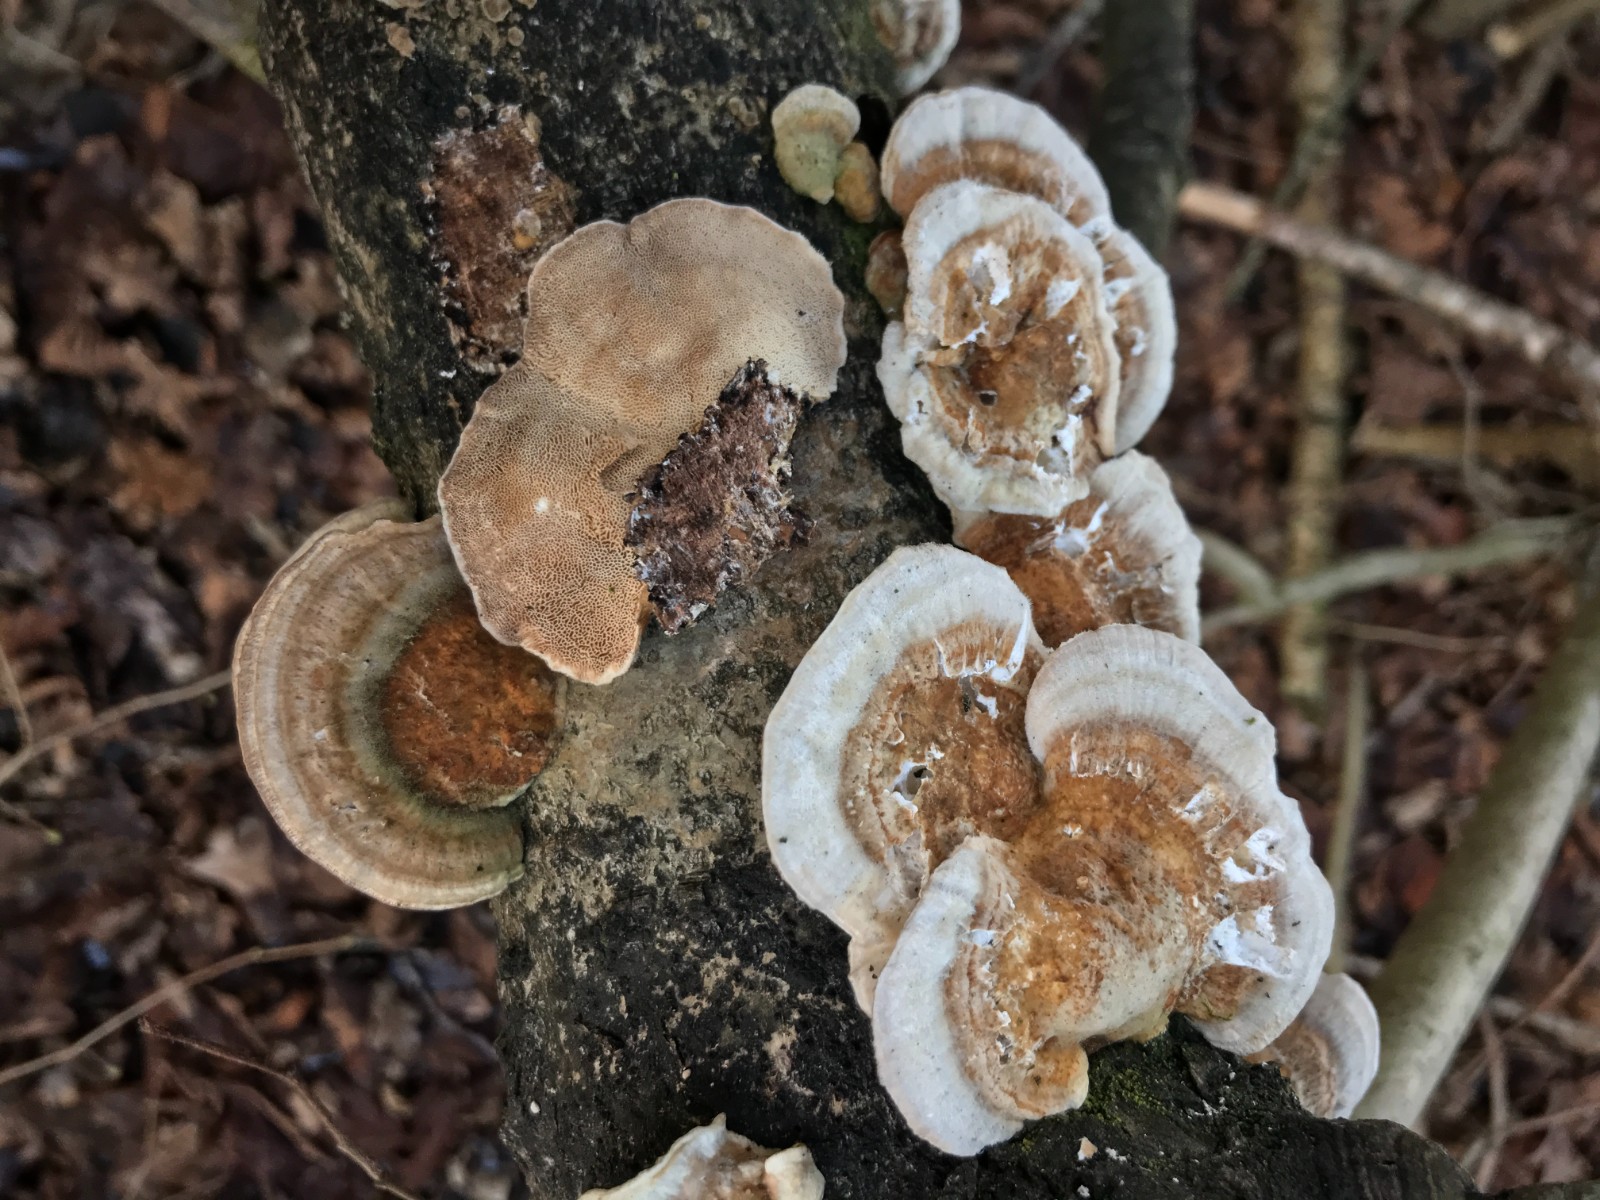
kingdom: Fungi
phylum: Basidiomycota
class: Agaricomycetes
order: Polyporales
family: Polyporaceae
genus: Trametes
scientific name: Trametes ochracea
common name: bæltet læderporesvamp
